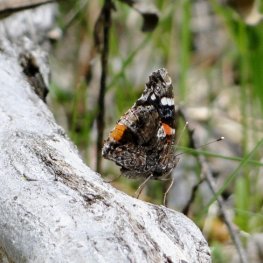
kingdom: Animalia
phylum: Arthropoda
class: Insecta
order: Lepidoptera
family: Nymphalidae
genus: Vanessa
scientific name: Vanessa atalanta
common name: Red Admiral
